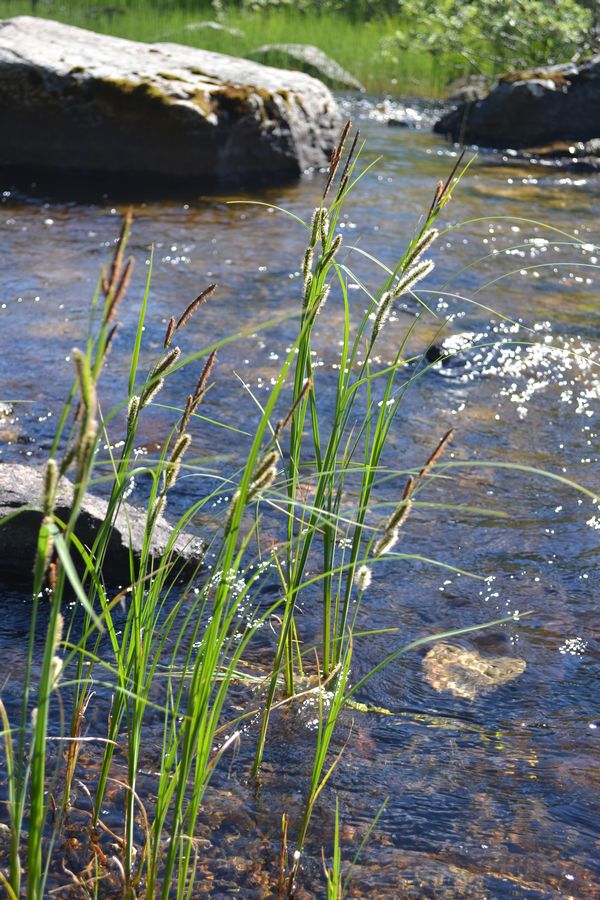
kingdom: Plantae
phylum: Tracheophyta
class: Liliopsida
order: Poales
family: Cyperaceae
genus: Carex
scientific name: Carex acuta
